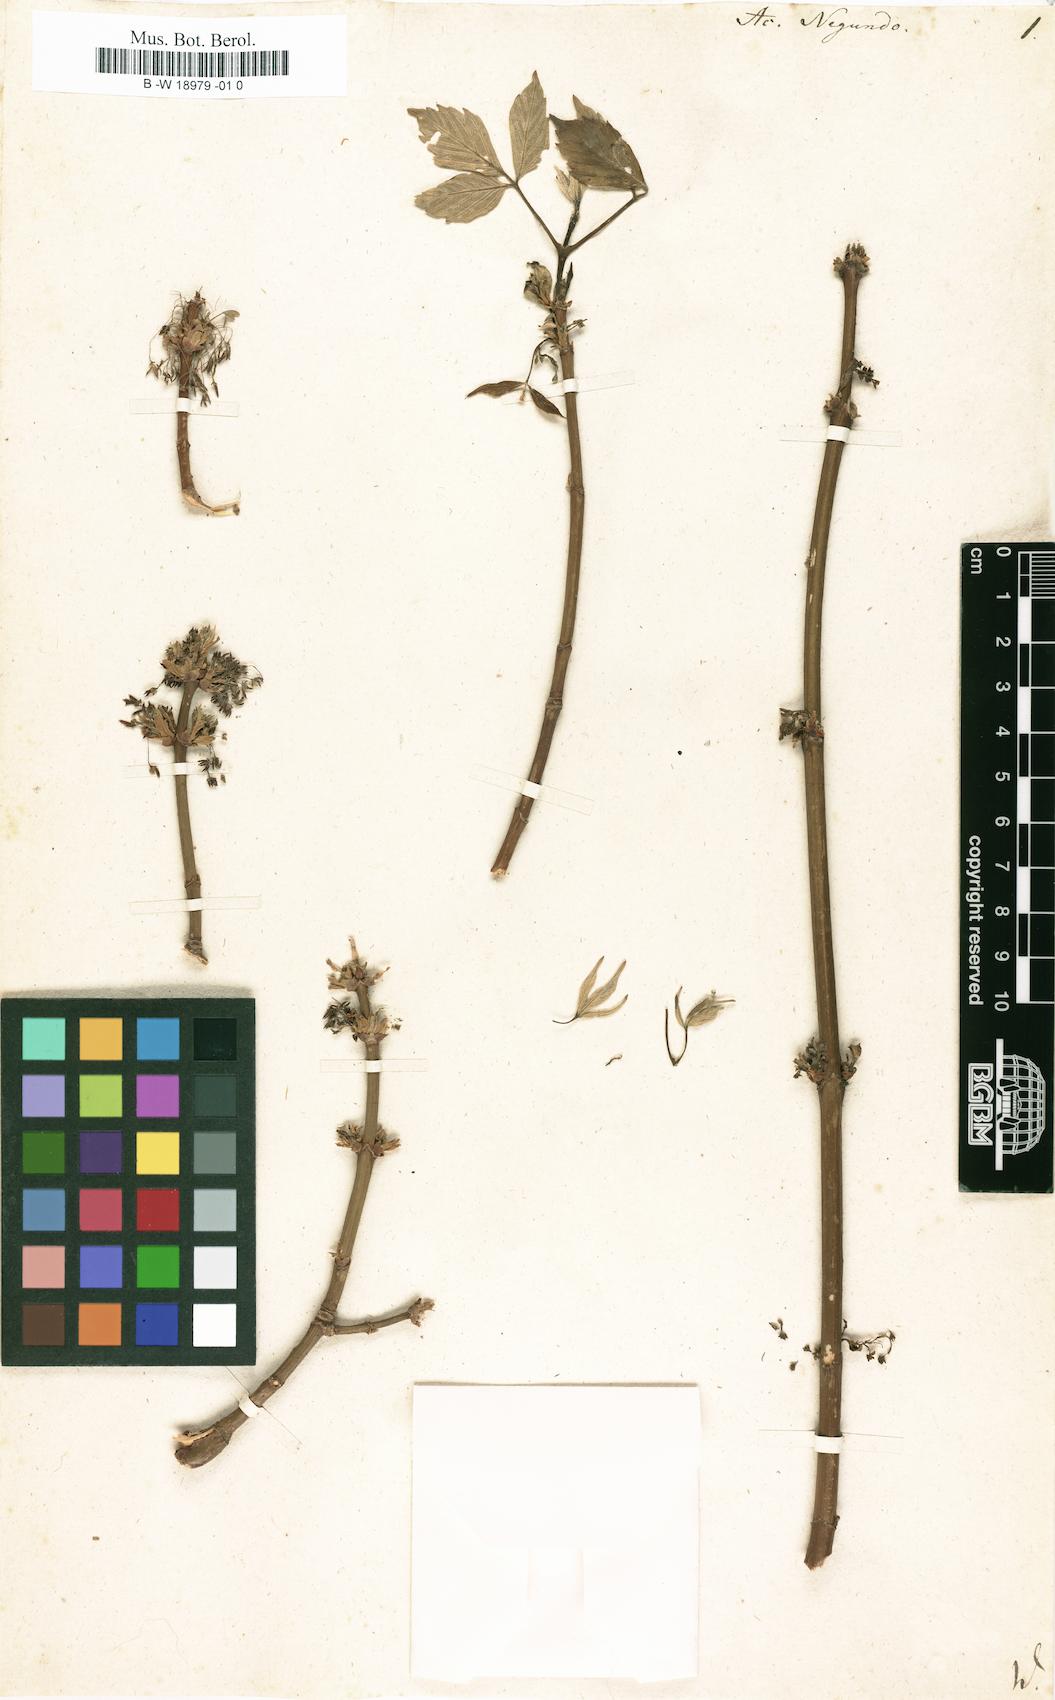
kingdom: Plantae
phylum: Tracheophyta
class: Magnoliopsida
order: Sapindales
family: Sapindaceae
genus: Acer
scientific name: Acer negundo
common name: Ashleaf maple
